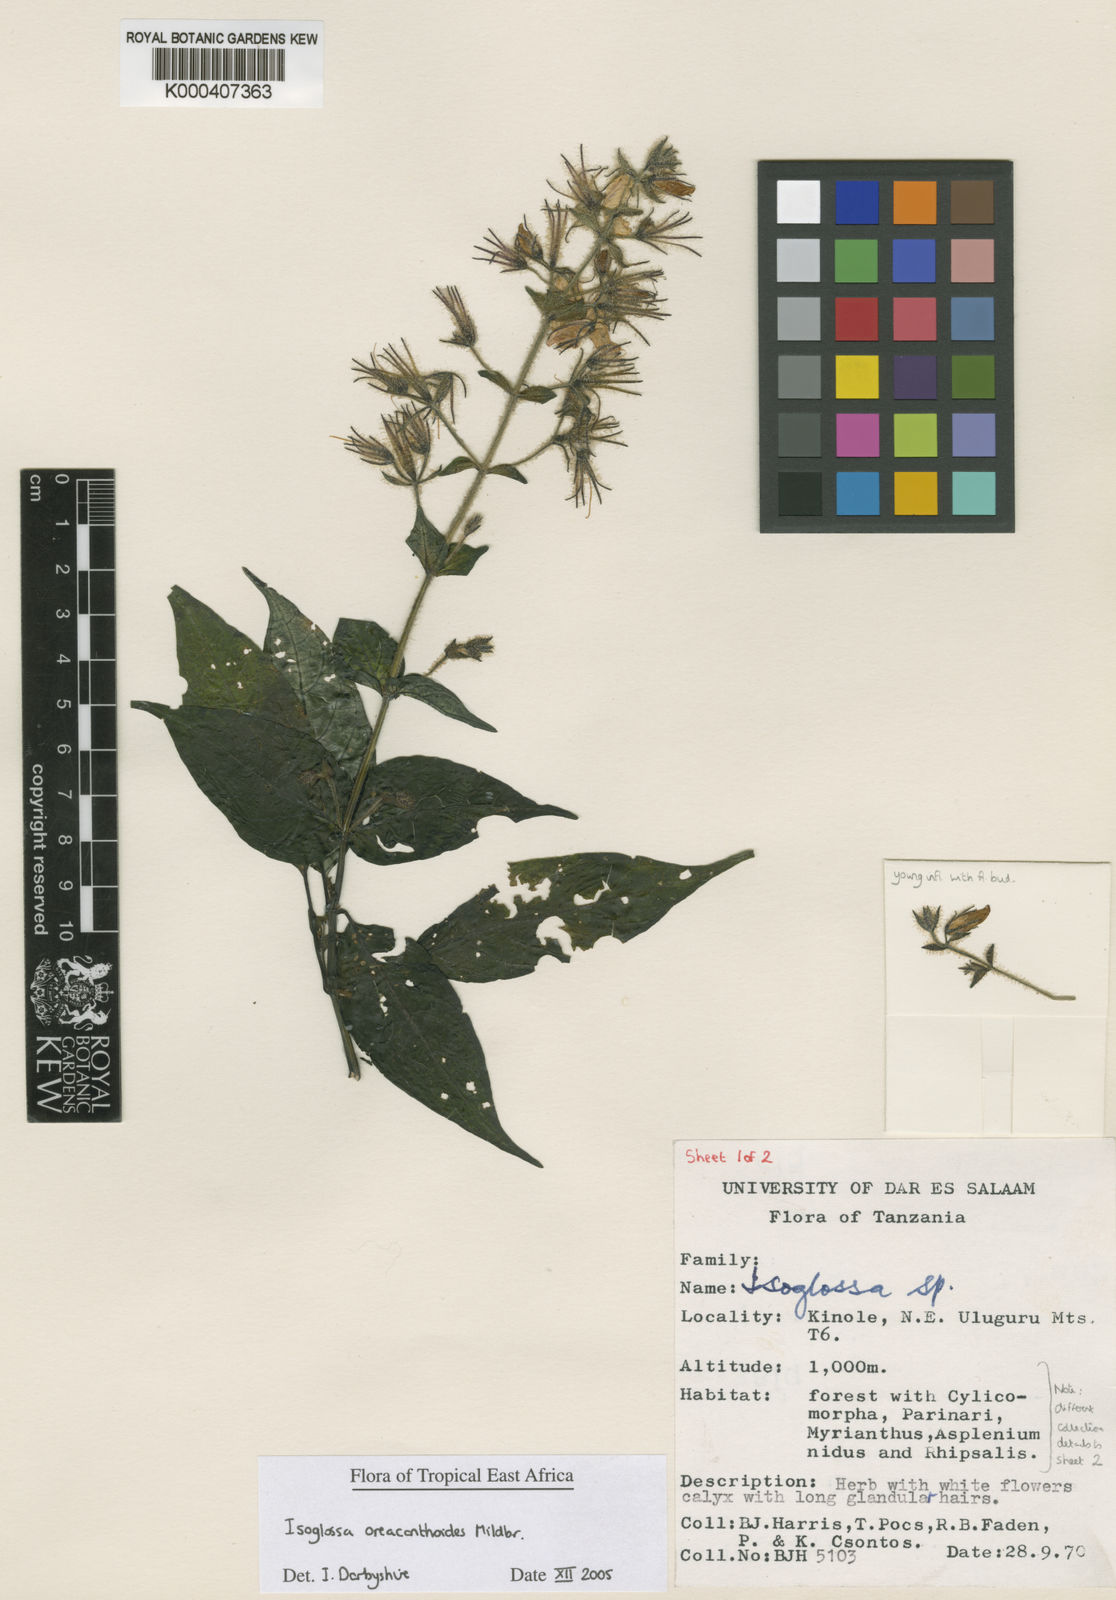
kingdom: Plantae
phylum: Tracheophyta
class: Magnoliopsida
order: Lamiales
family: Acanthaceae
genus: Isoglossa
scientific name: Isoglossa oreacanthoides
